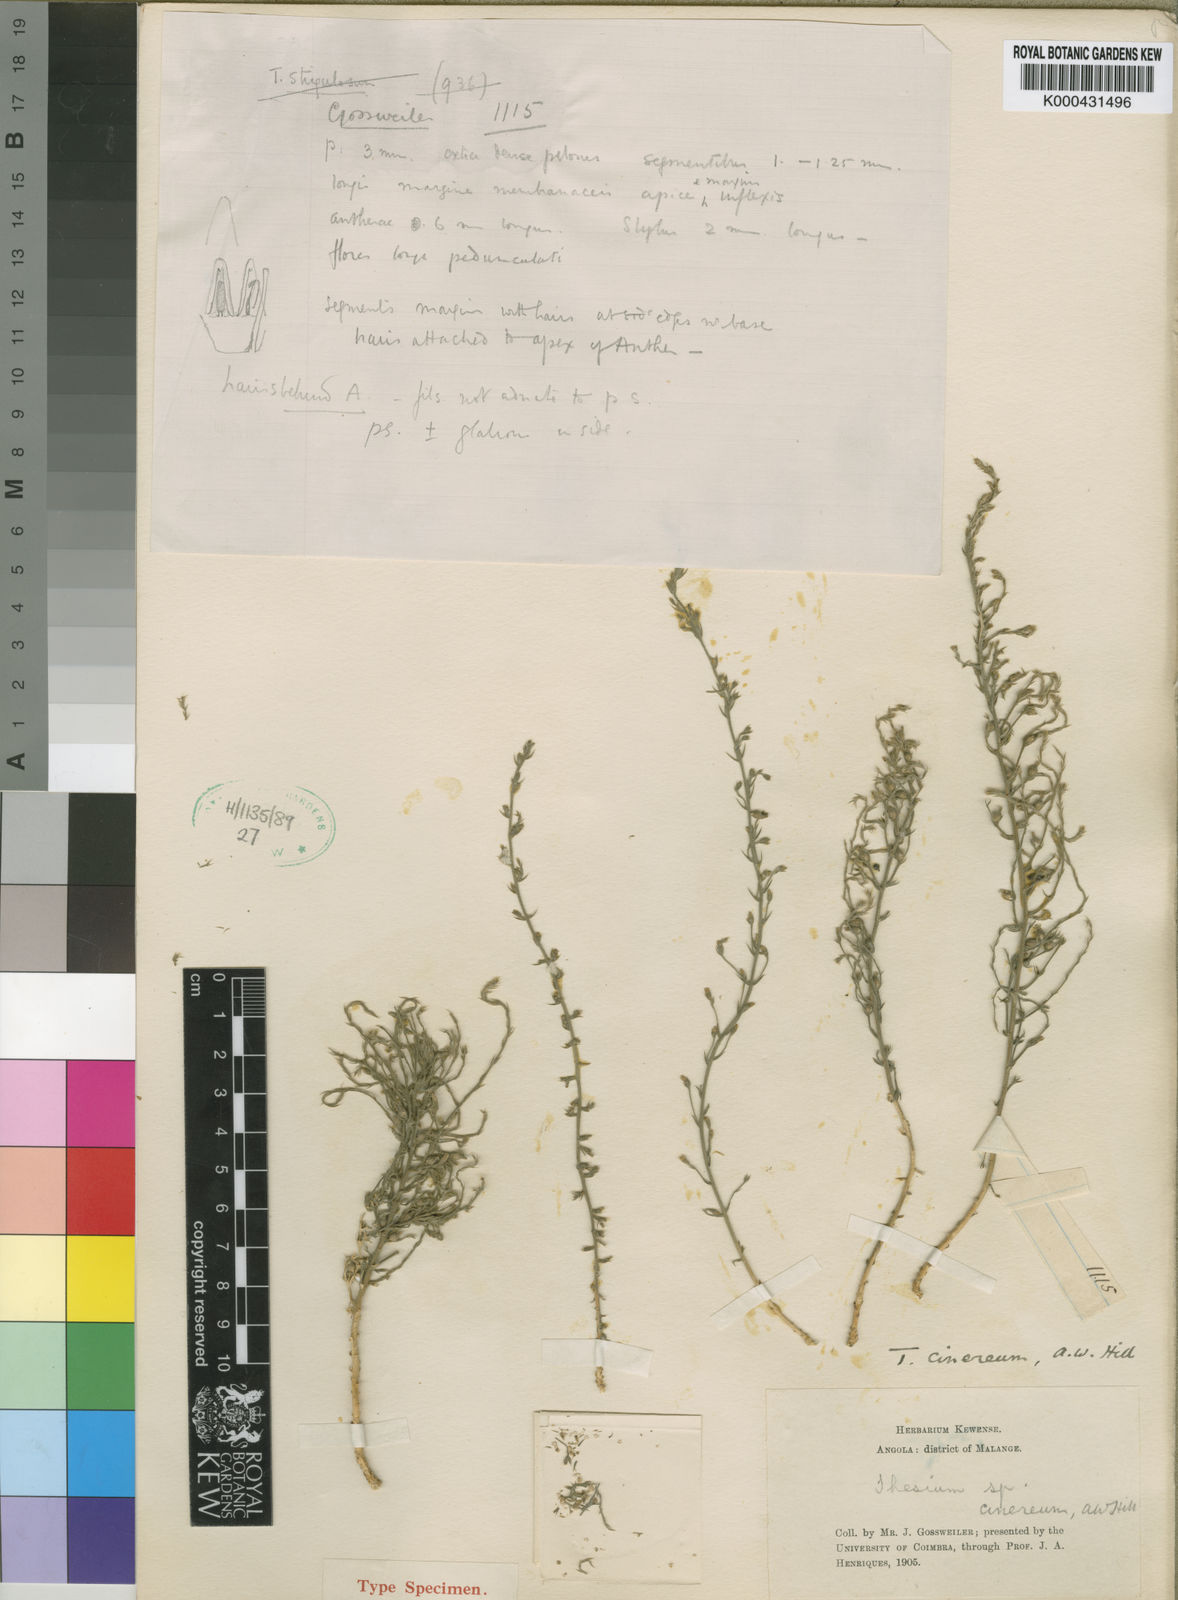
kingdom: Plantae
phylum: Tracheophyta
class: Magnoliopsida
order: Santalales
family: Thesiaceae
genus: Thesium
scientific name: Thesium cinereum
